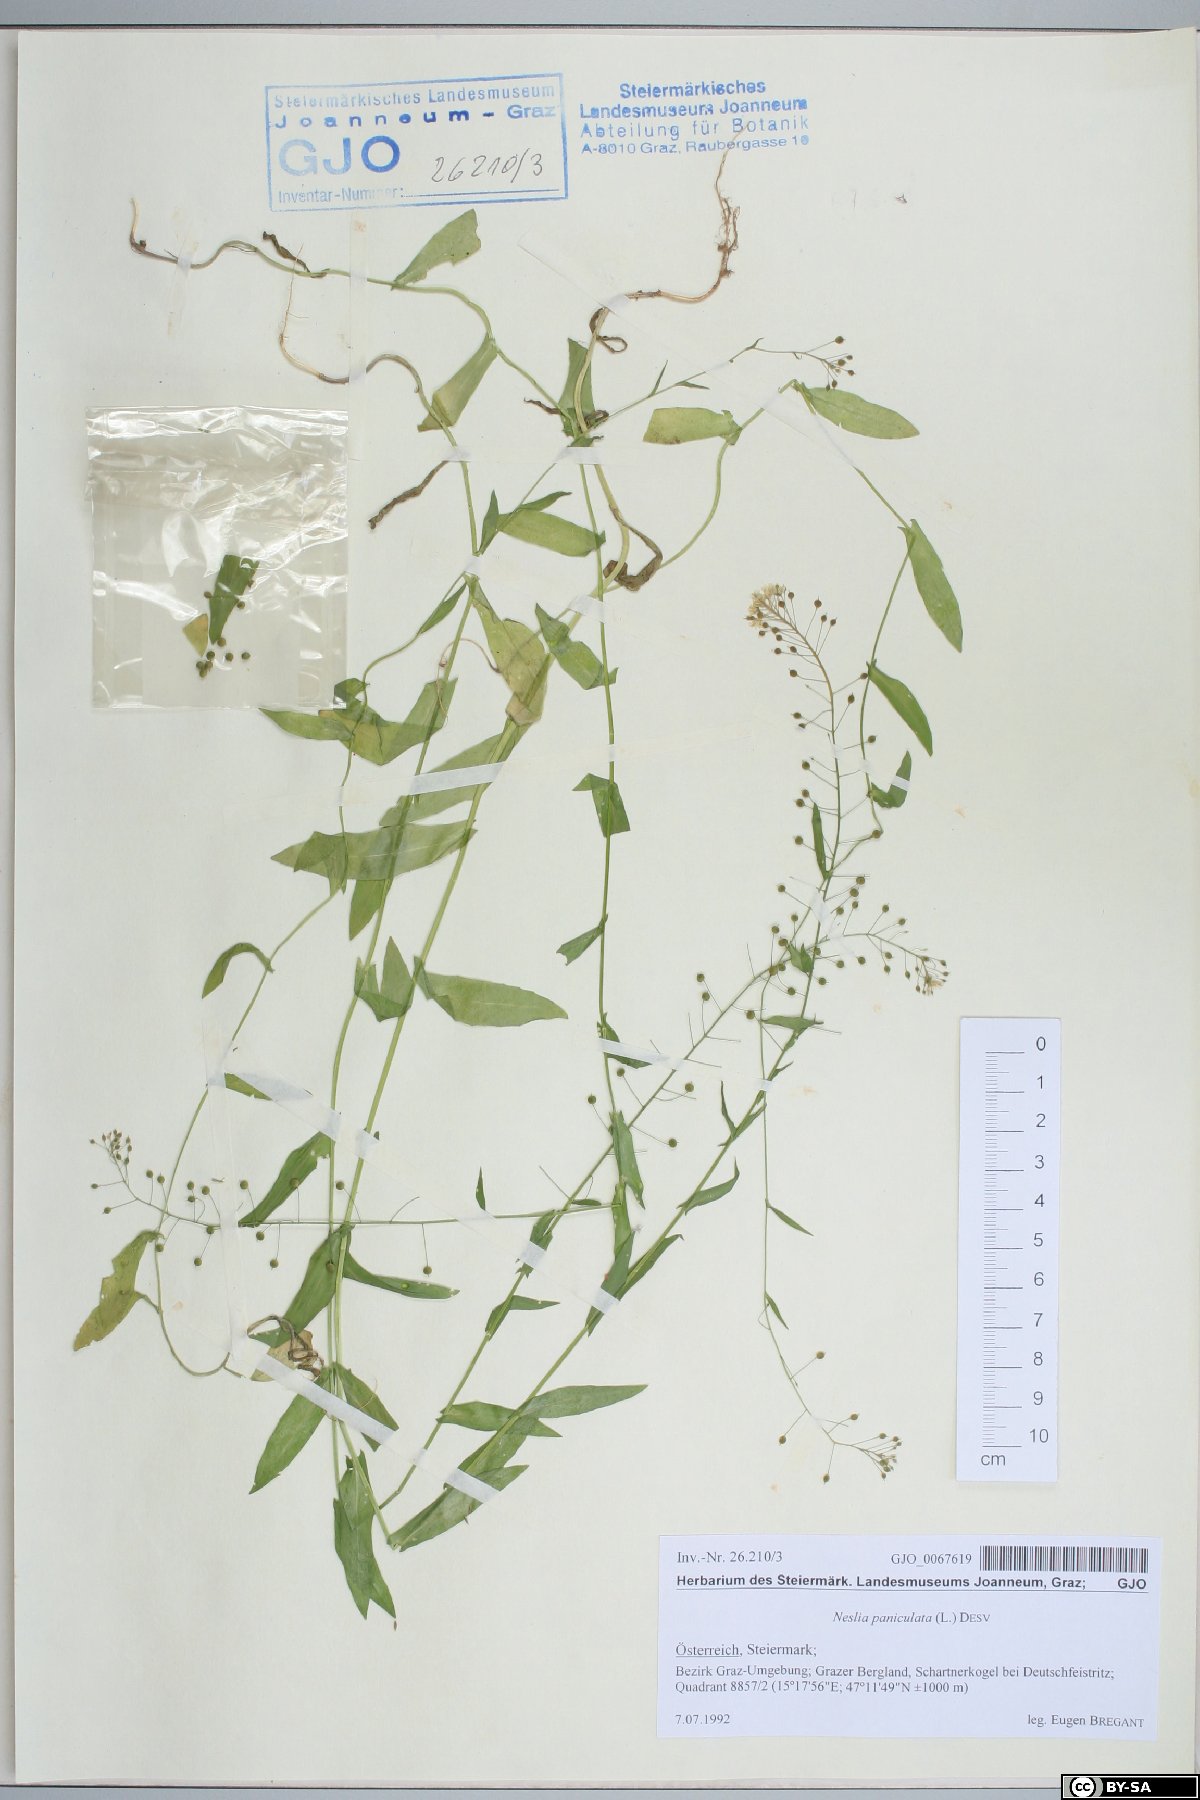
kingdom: Plantae
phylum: Tracheophyta
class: Magnoliopsida
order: Brassicales
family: Brassicaceae
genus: Neslia
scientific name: Neslia paniculata
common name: Ball mustard
